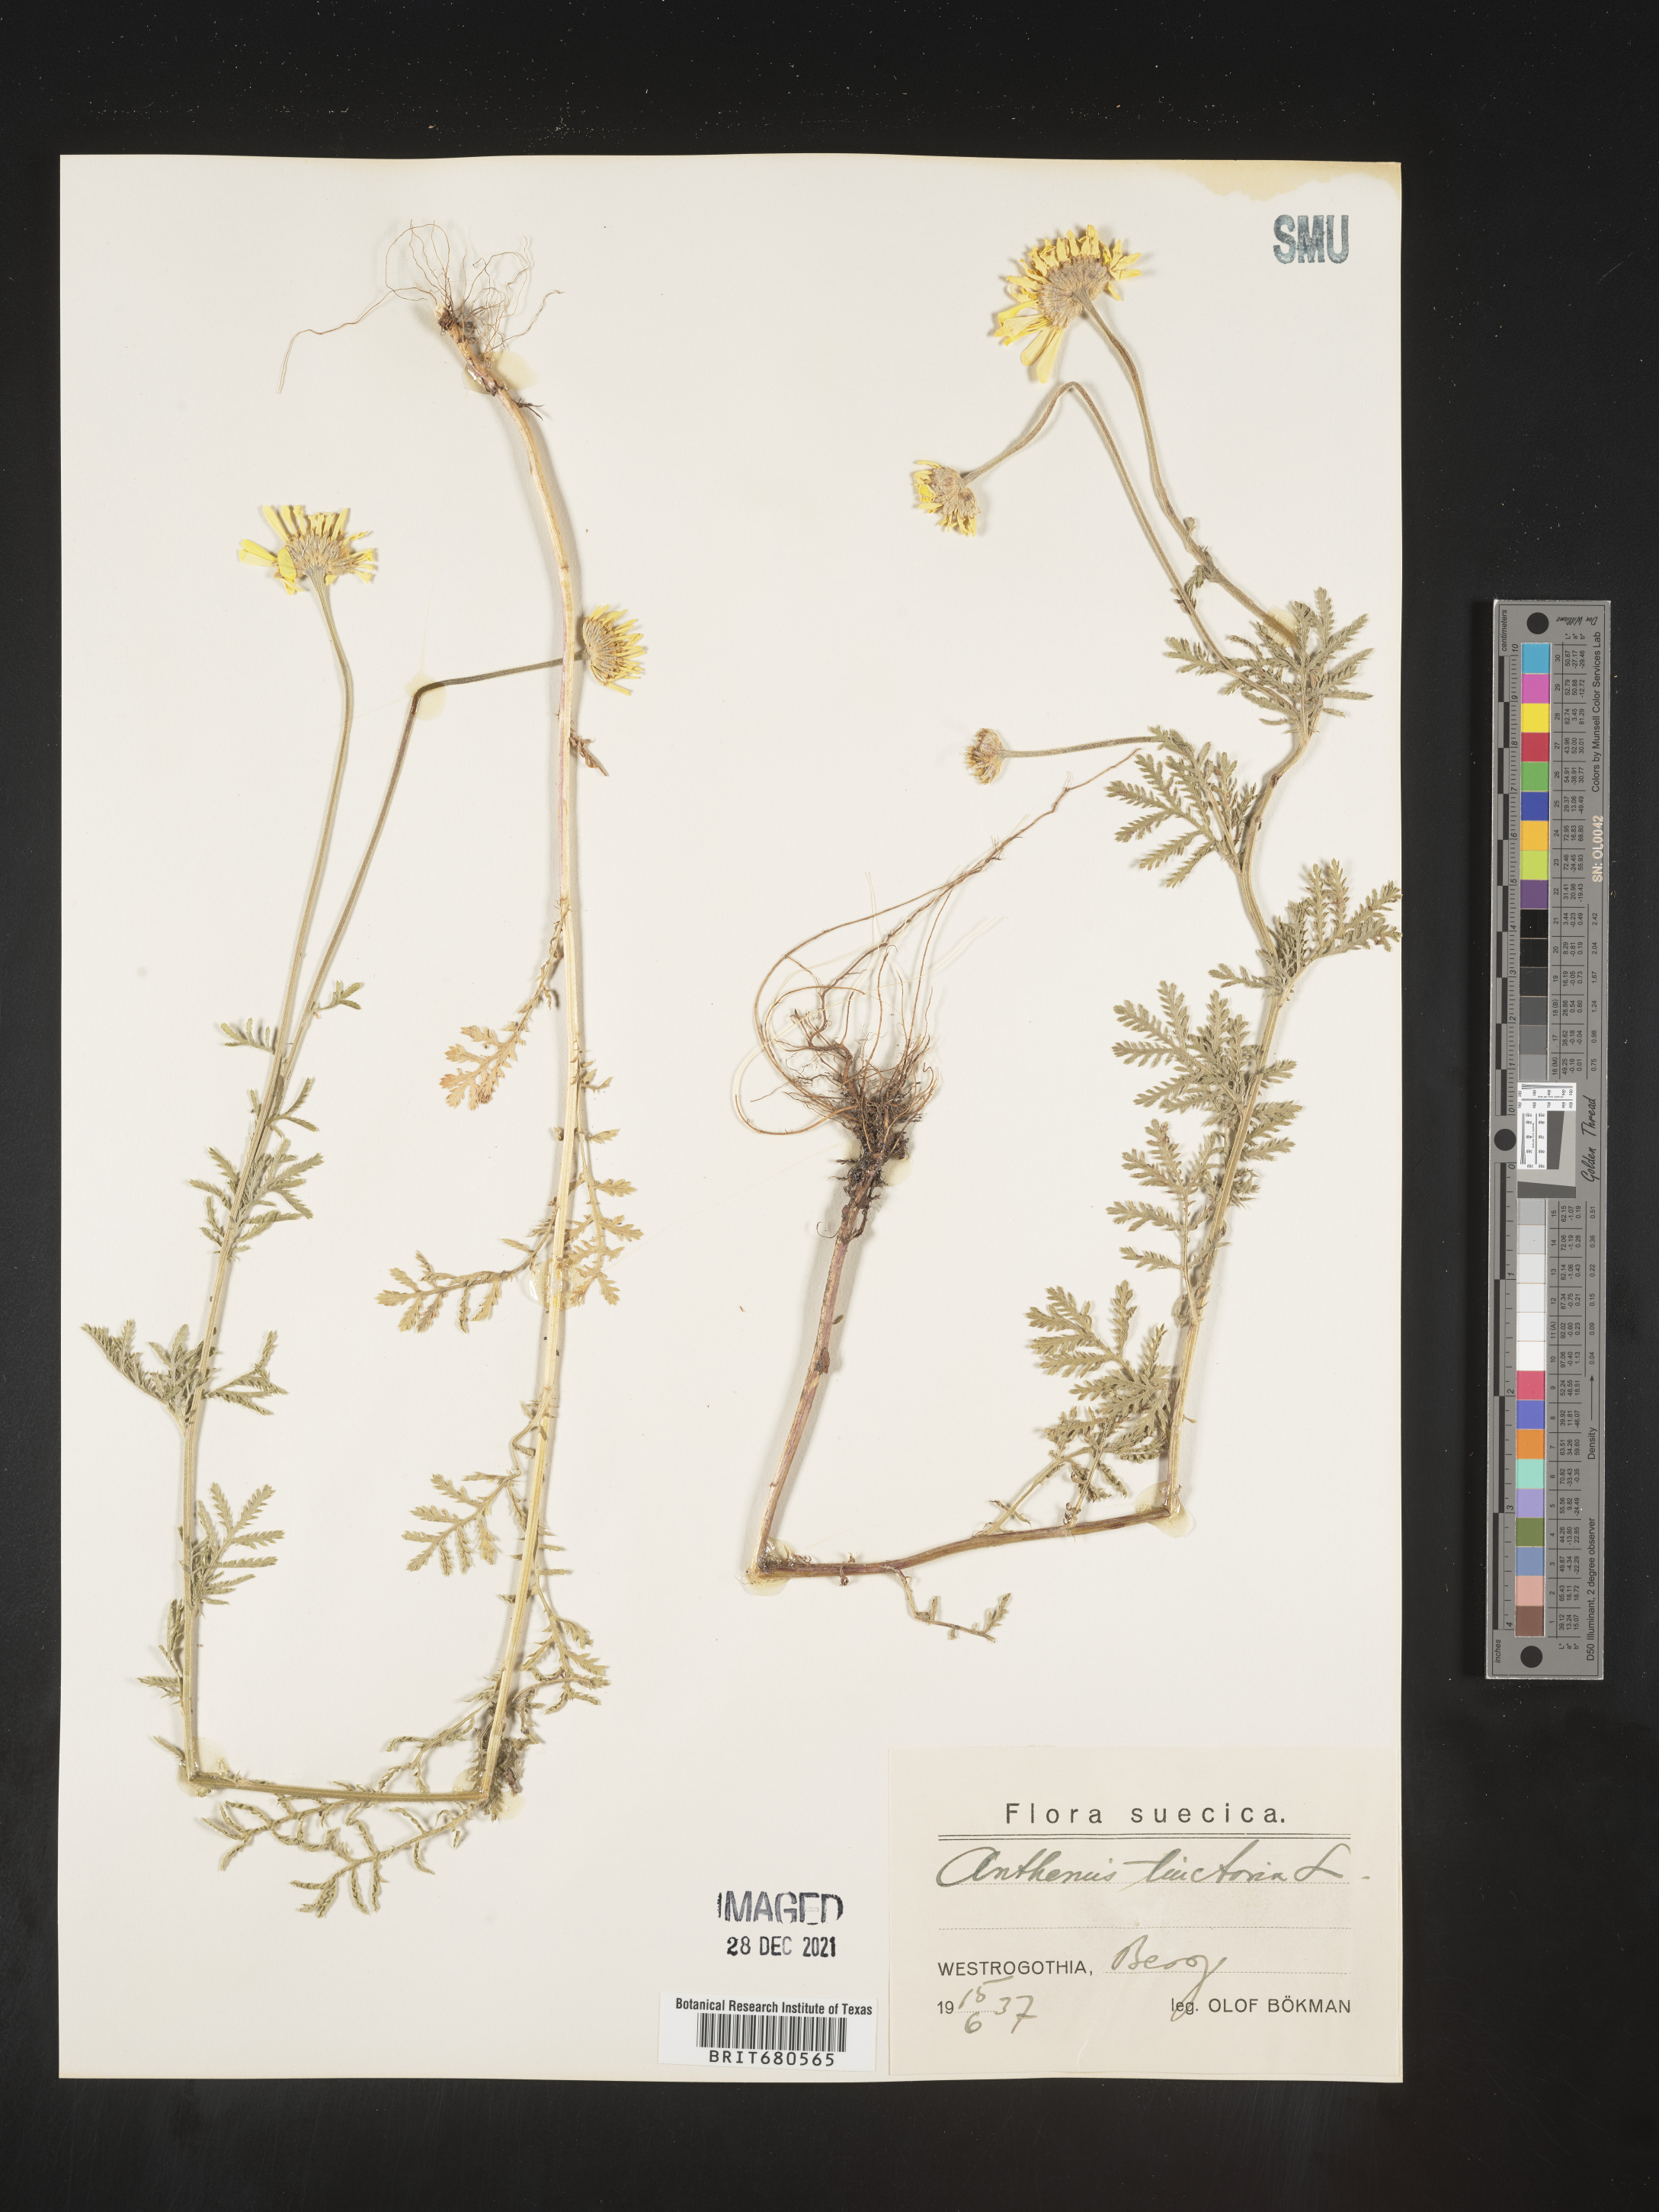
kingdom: Plantae
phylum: Tracheophyta
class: Magnoliopsida
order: Asterales
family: Asteraceae
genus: Anthemis
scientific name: Anthemis
